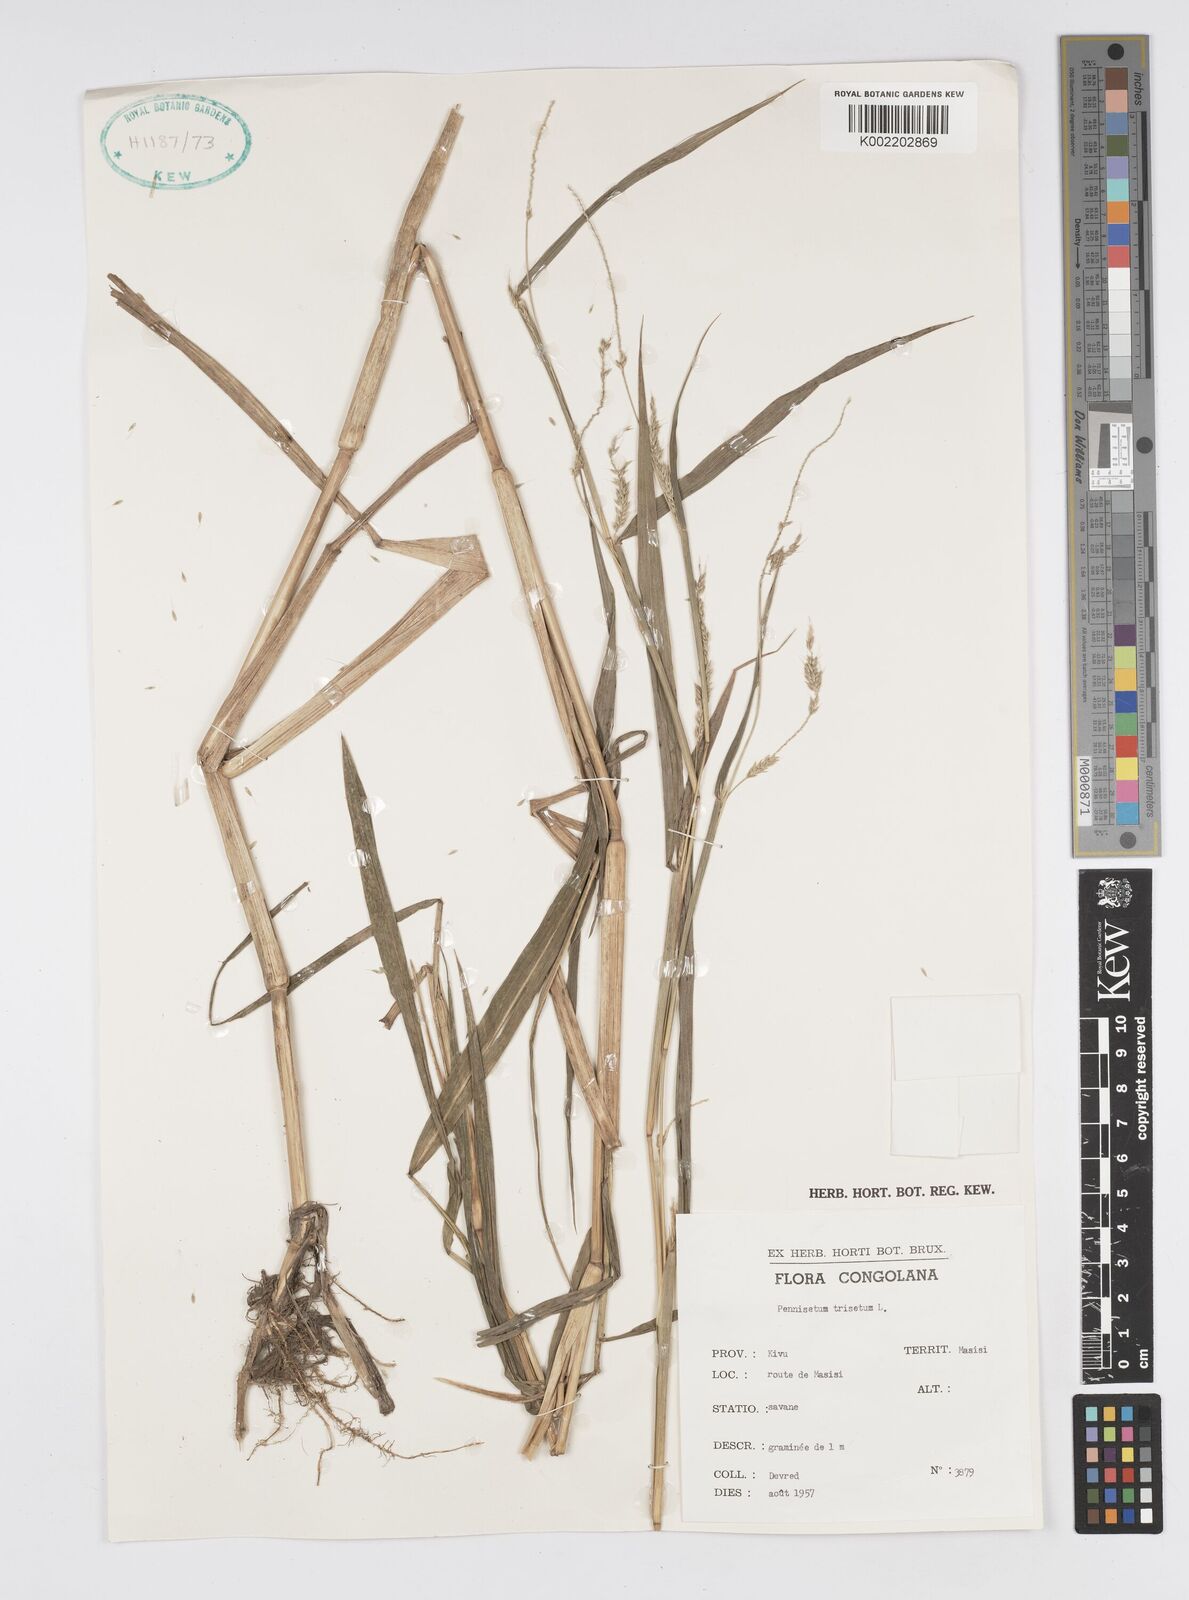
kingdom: Plantae
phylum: Tracheophyta
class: Liliopsida
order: Poales
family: Poaceae
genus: Cenchrus
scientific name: Cenchrus trisetus
